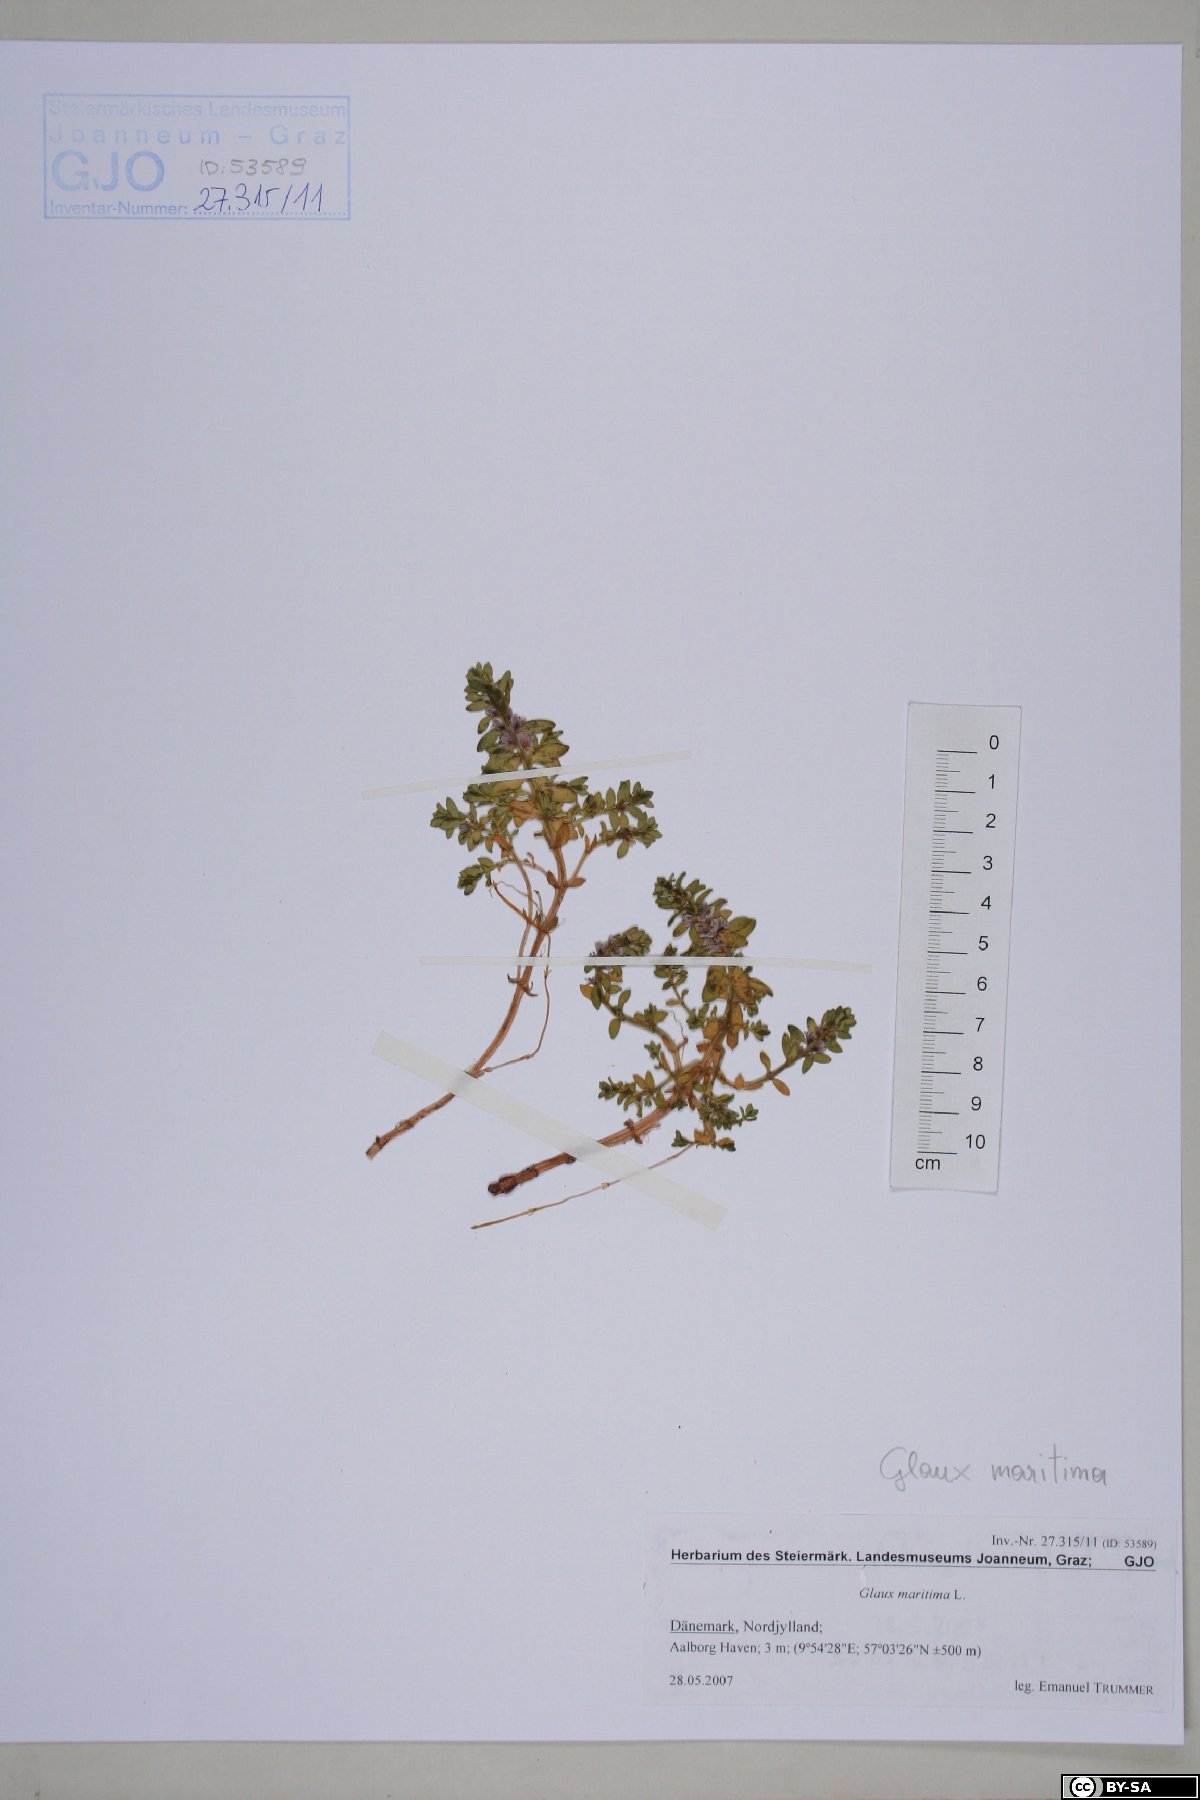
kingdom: Plantae
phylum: Tracheophyta
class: Magnoliopsida
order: Ericales
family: Primulaceae
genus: Lysimachia
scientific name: Lysimachia maritima
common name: Sea milkwort
